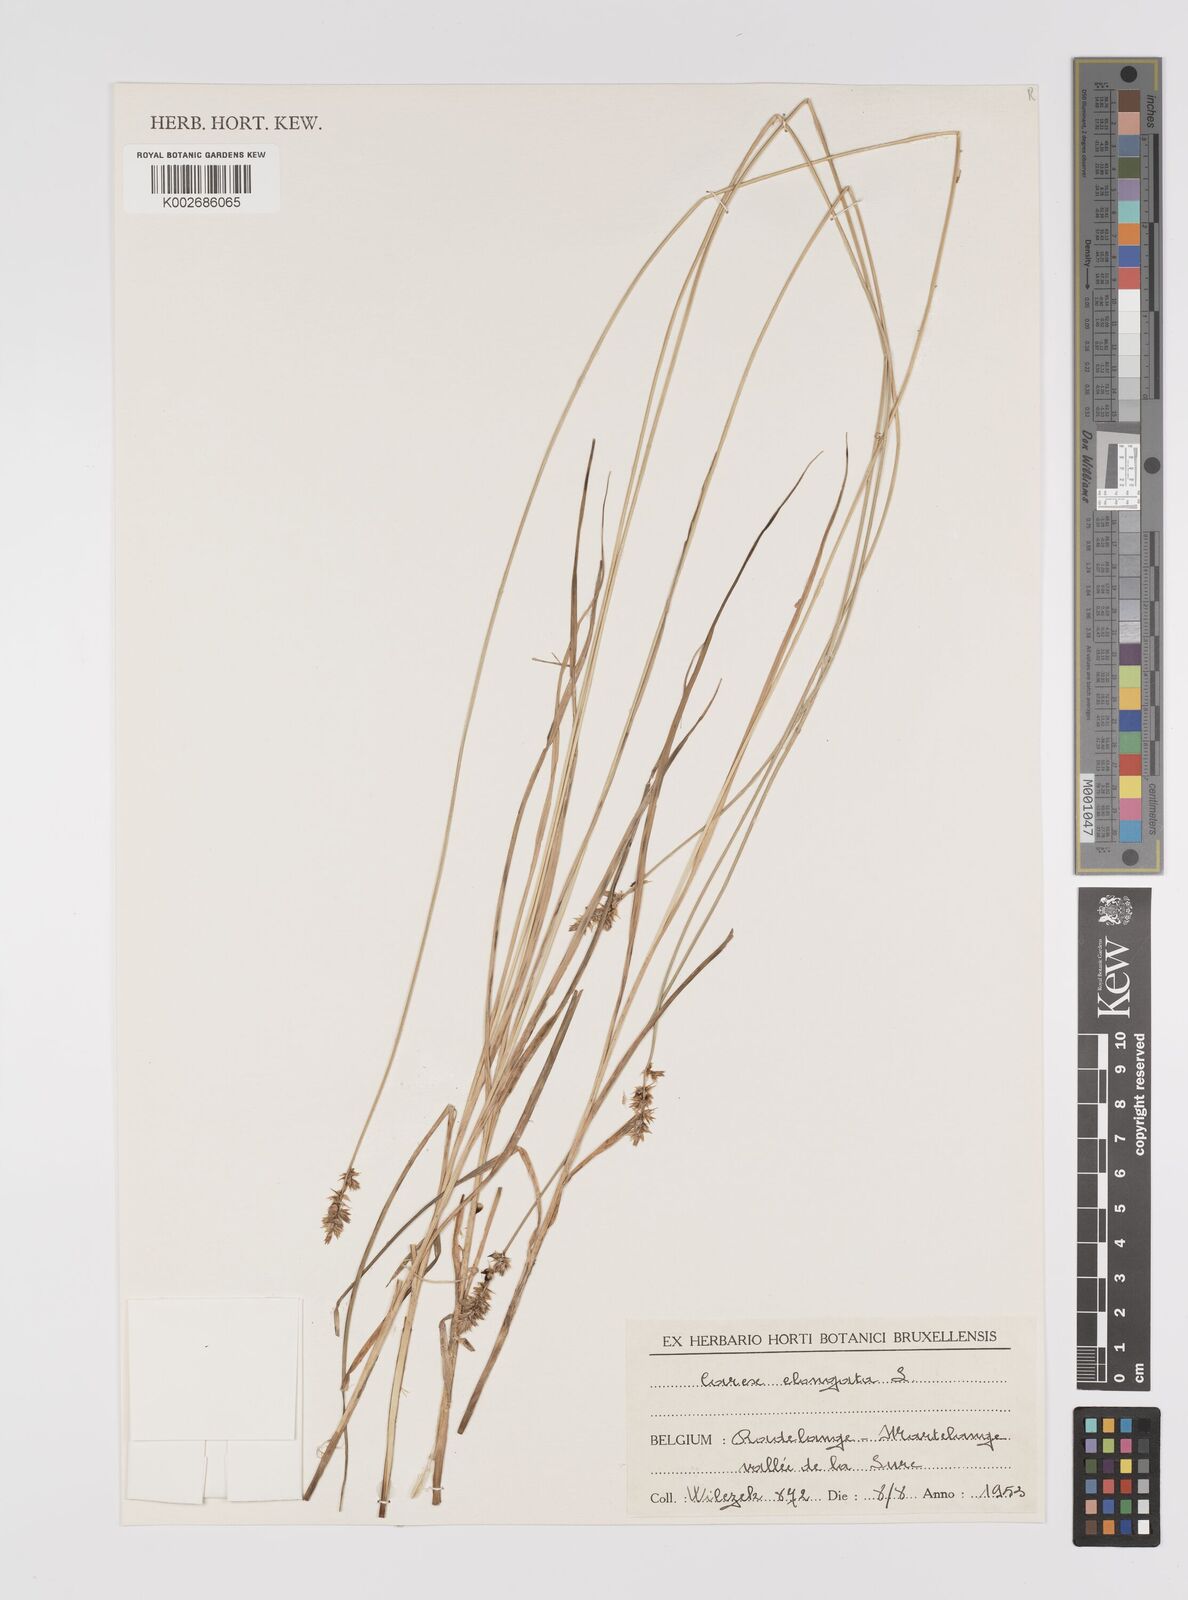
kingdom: Plantae
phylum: Tracheophyta
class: Liliopsida
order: Poales
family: Cyperaceae
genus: Carex
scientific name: Carex elongata
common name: Elongated sedge
